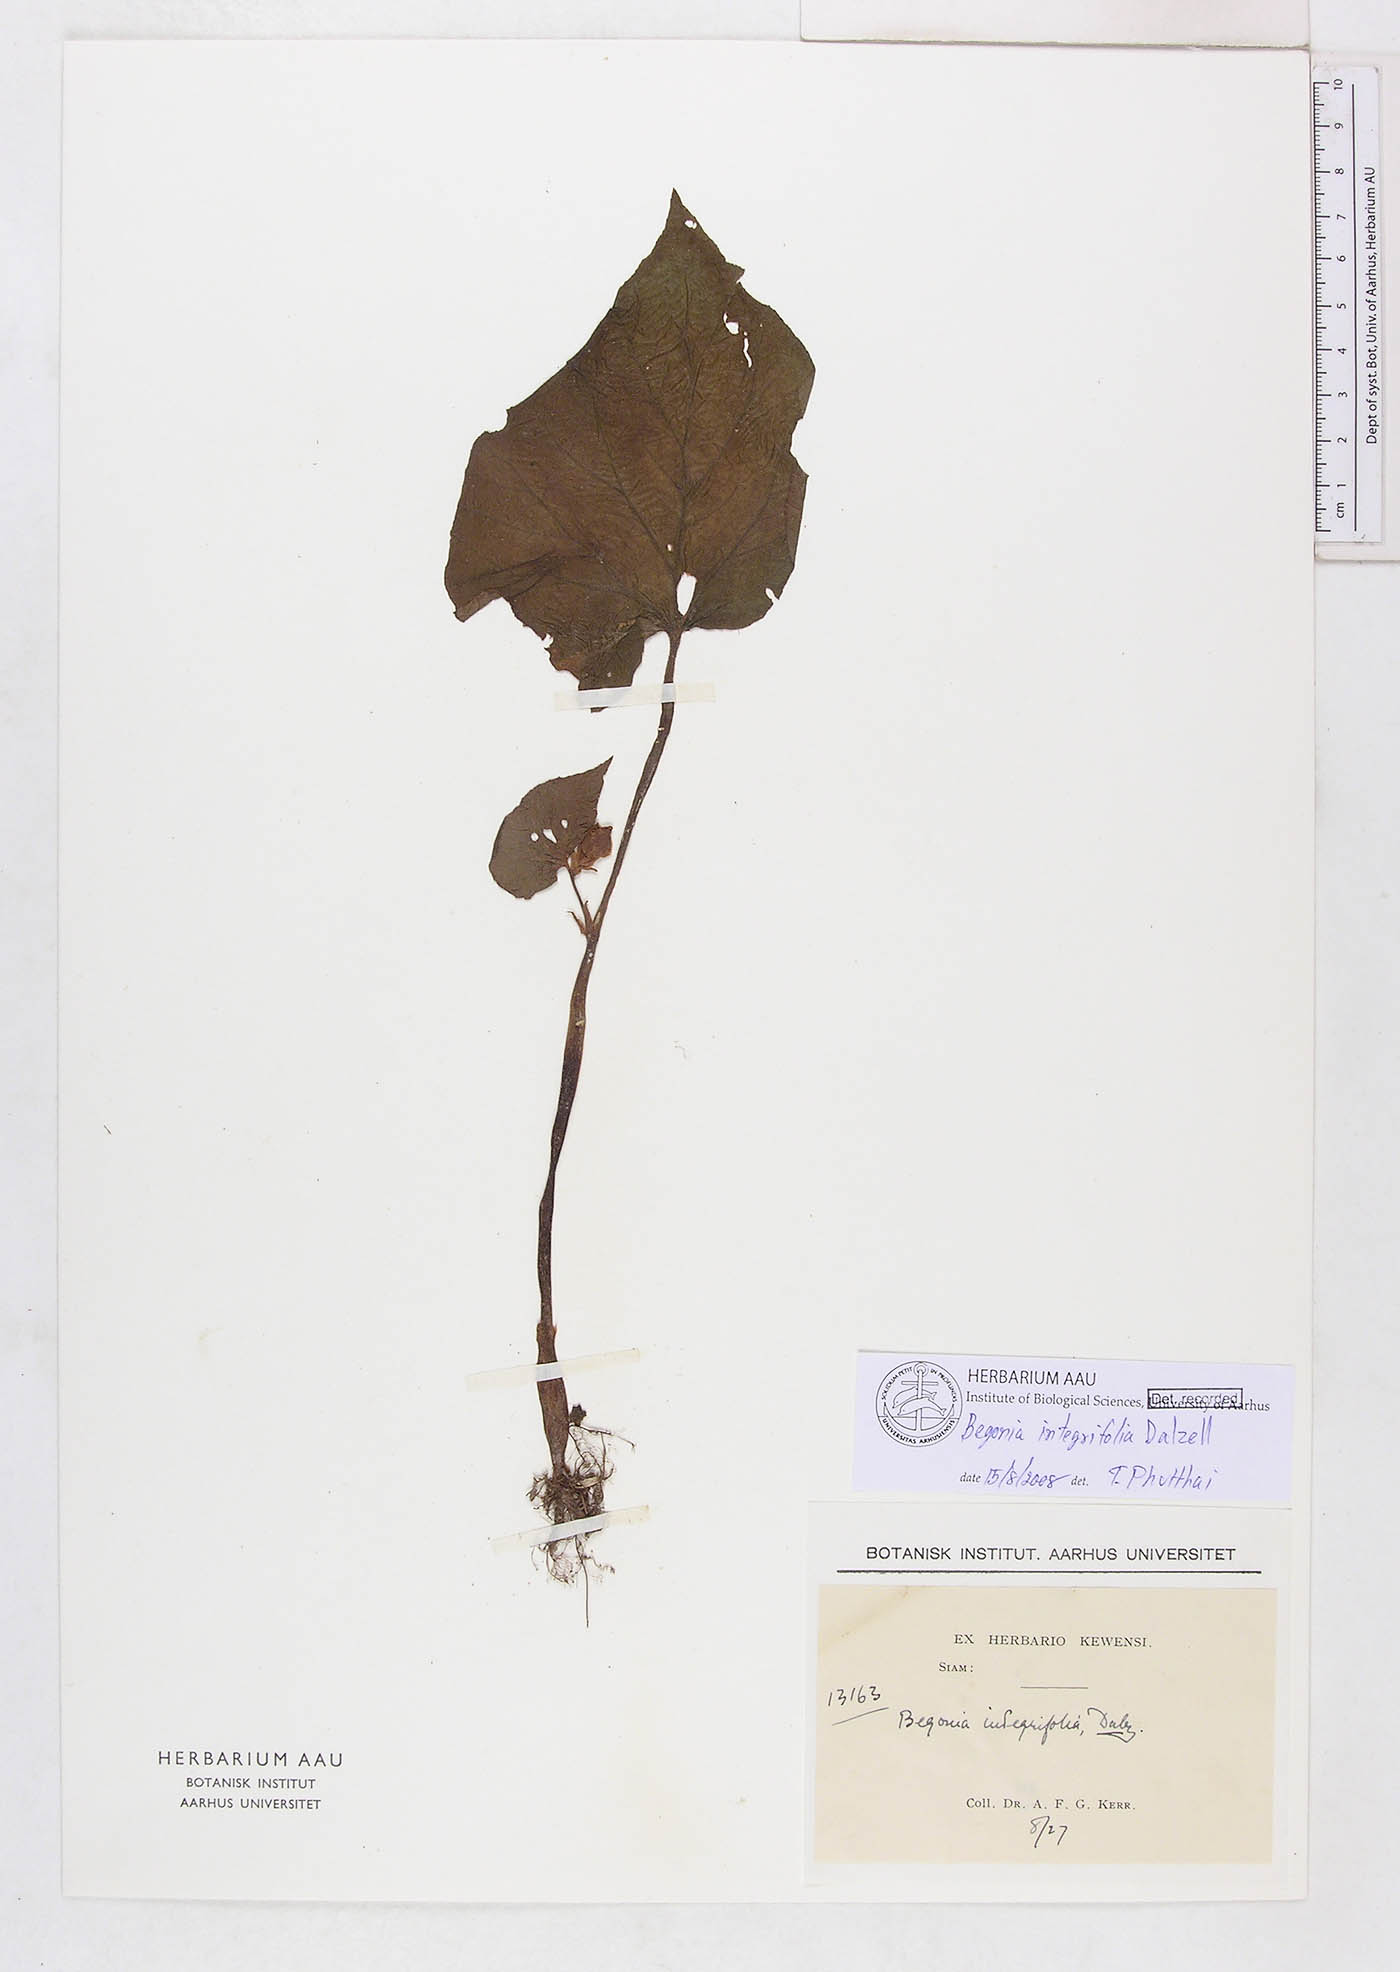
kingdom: Plantae
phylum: Tracheophyta
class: Magnoliopsida
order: Cucurbitales
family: Begoniaceae
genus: Begonia
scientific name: Begonia integrifolia
